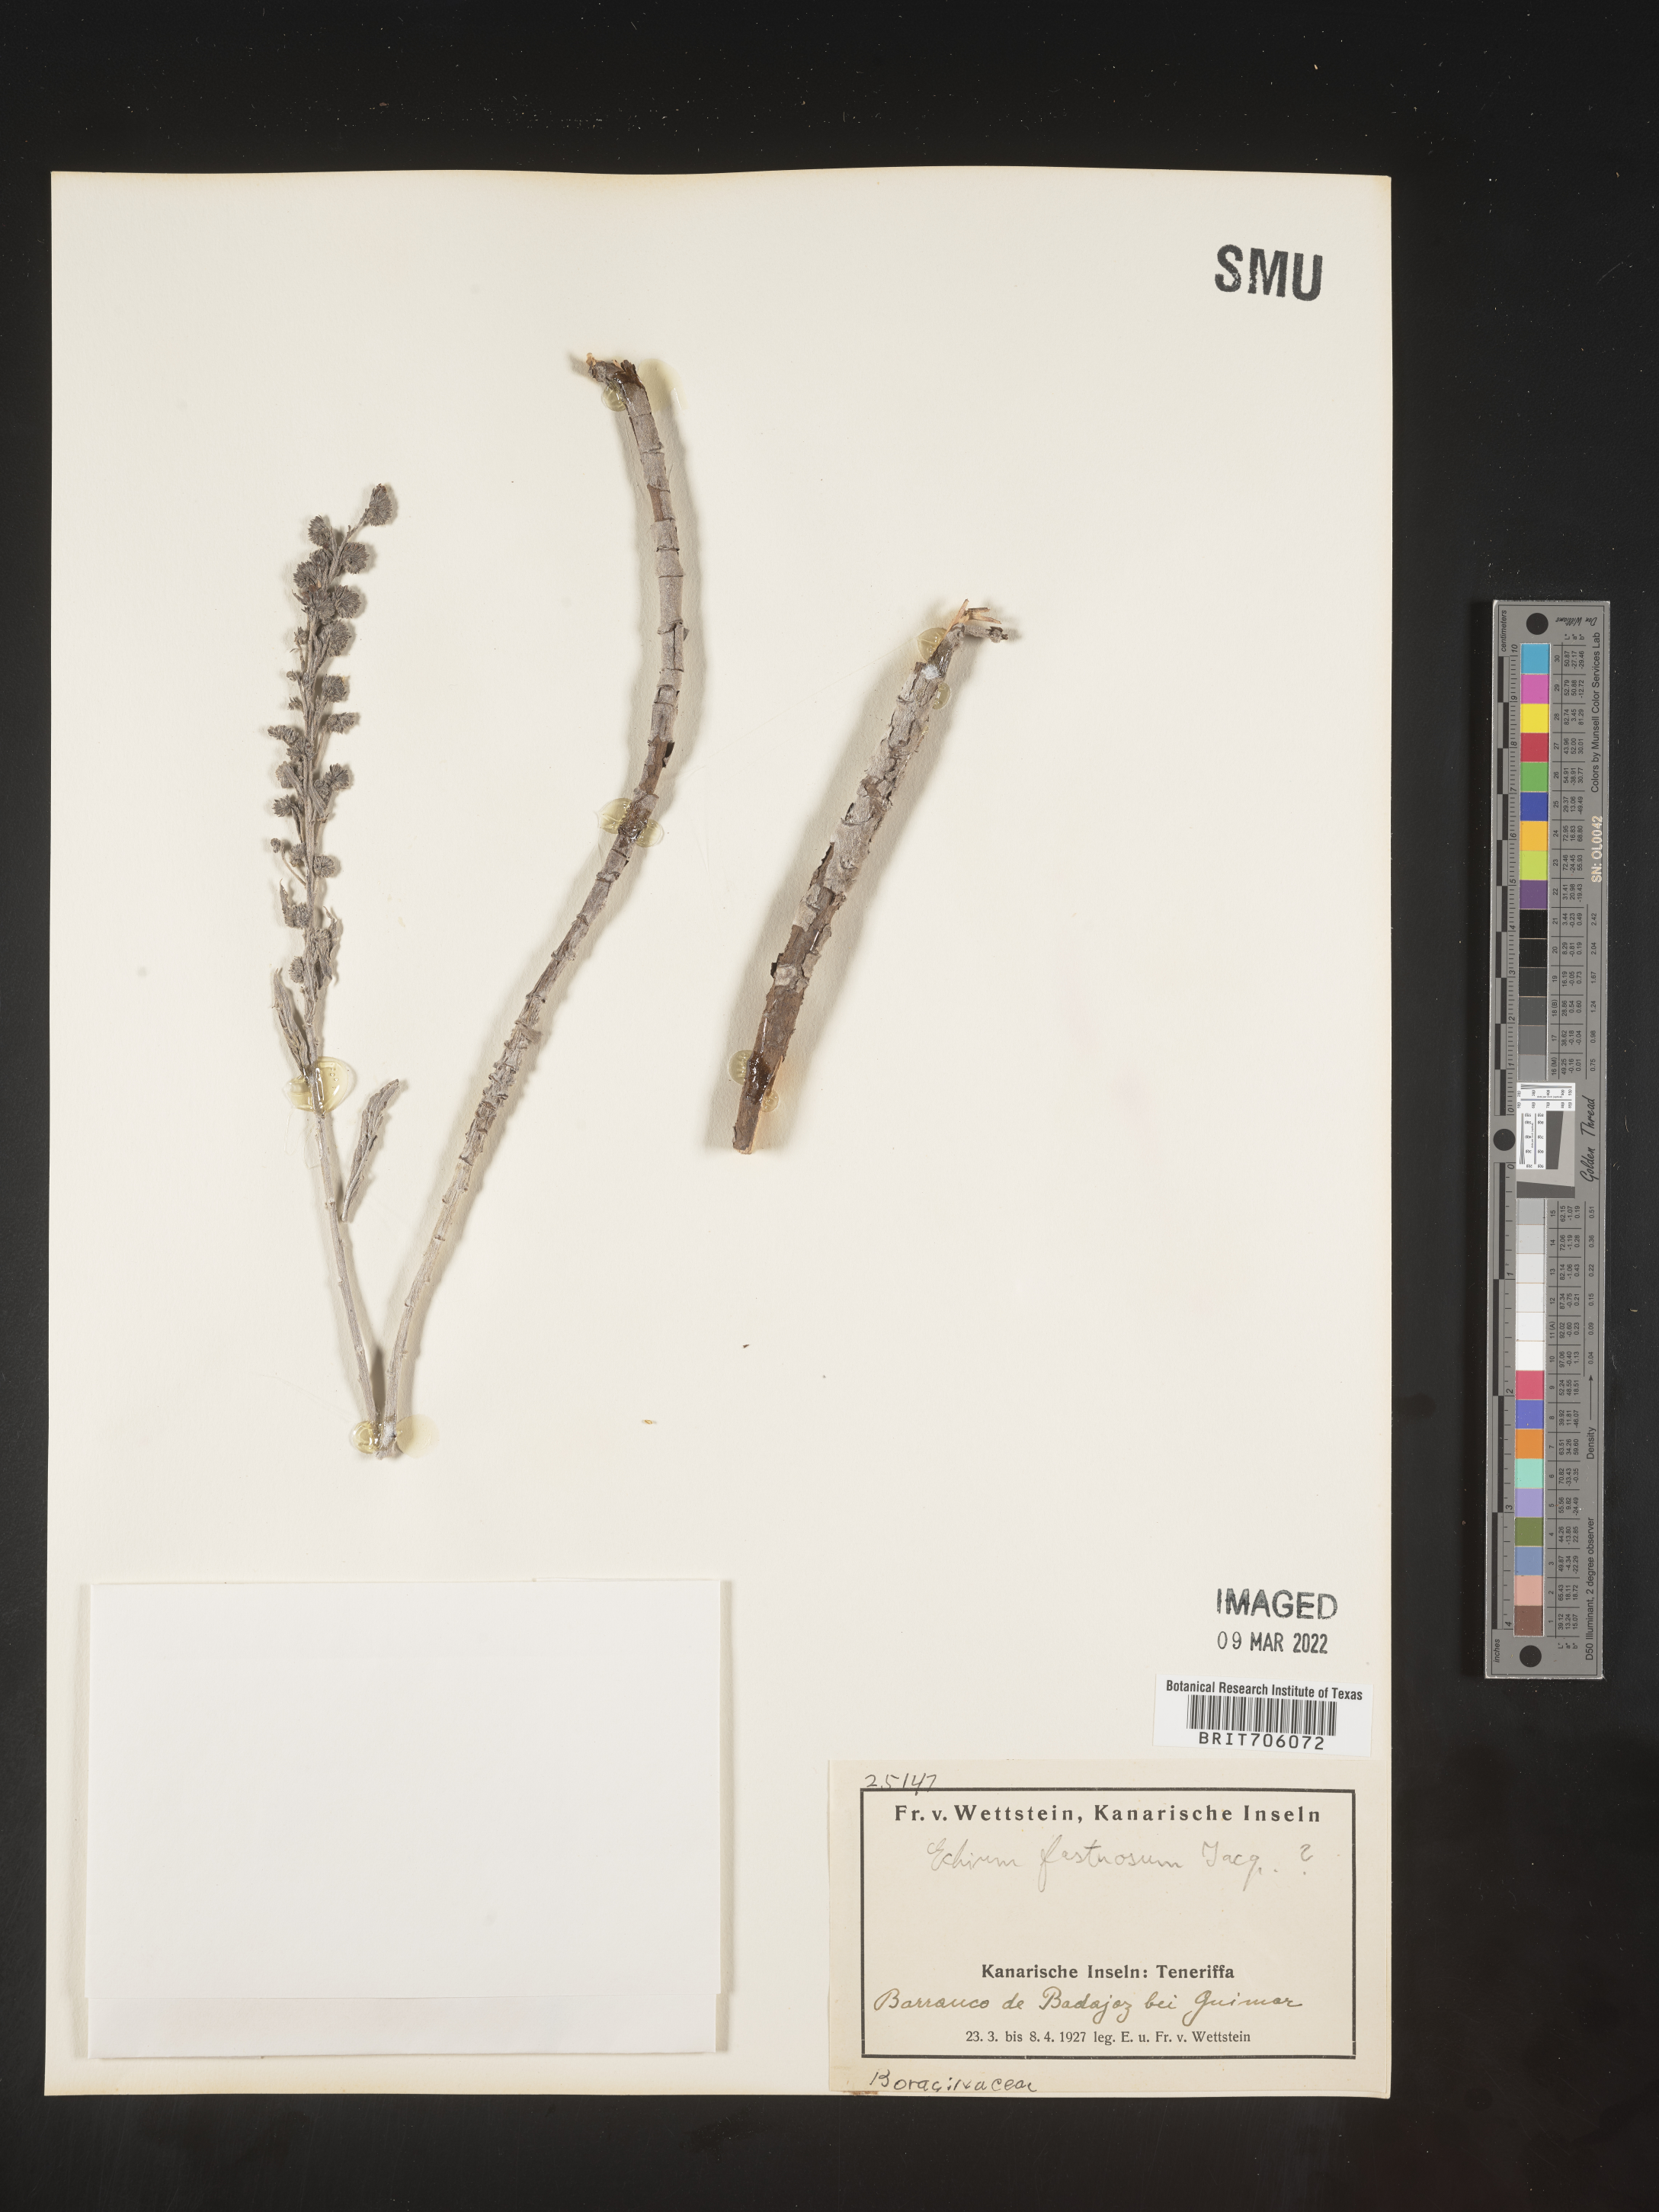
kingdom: Plantae
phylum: Tracheophyta
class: Magnoliopsida
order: Boraginales
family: Boraginaceae
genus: Echium
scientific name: Echium
